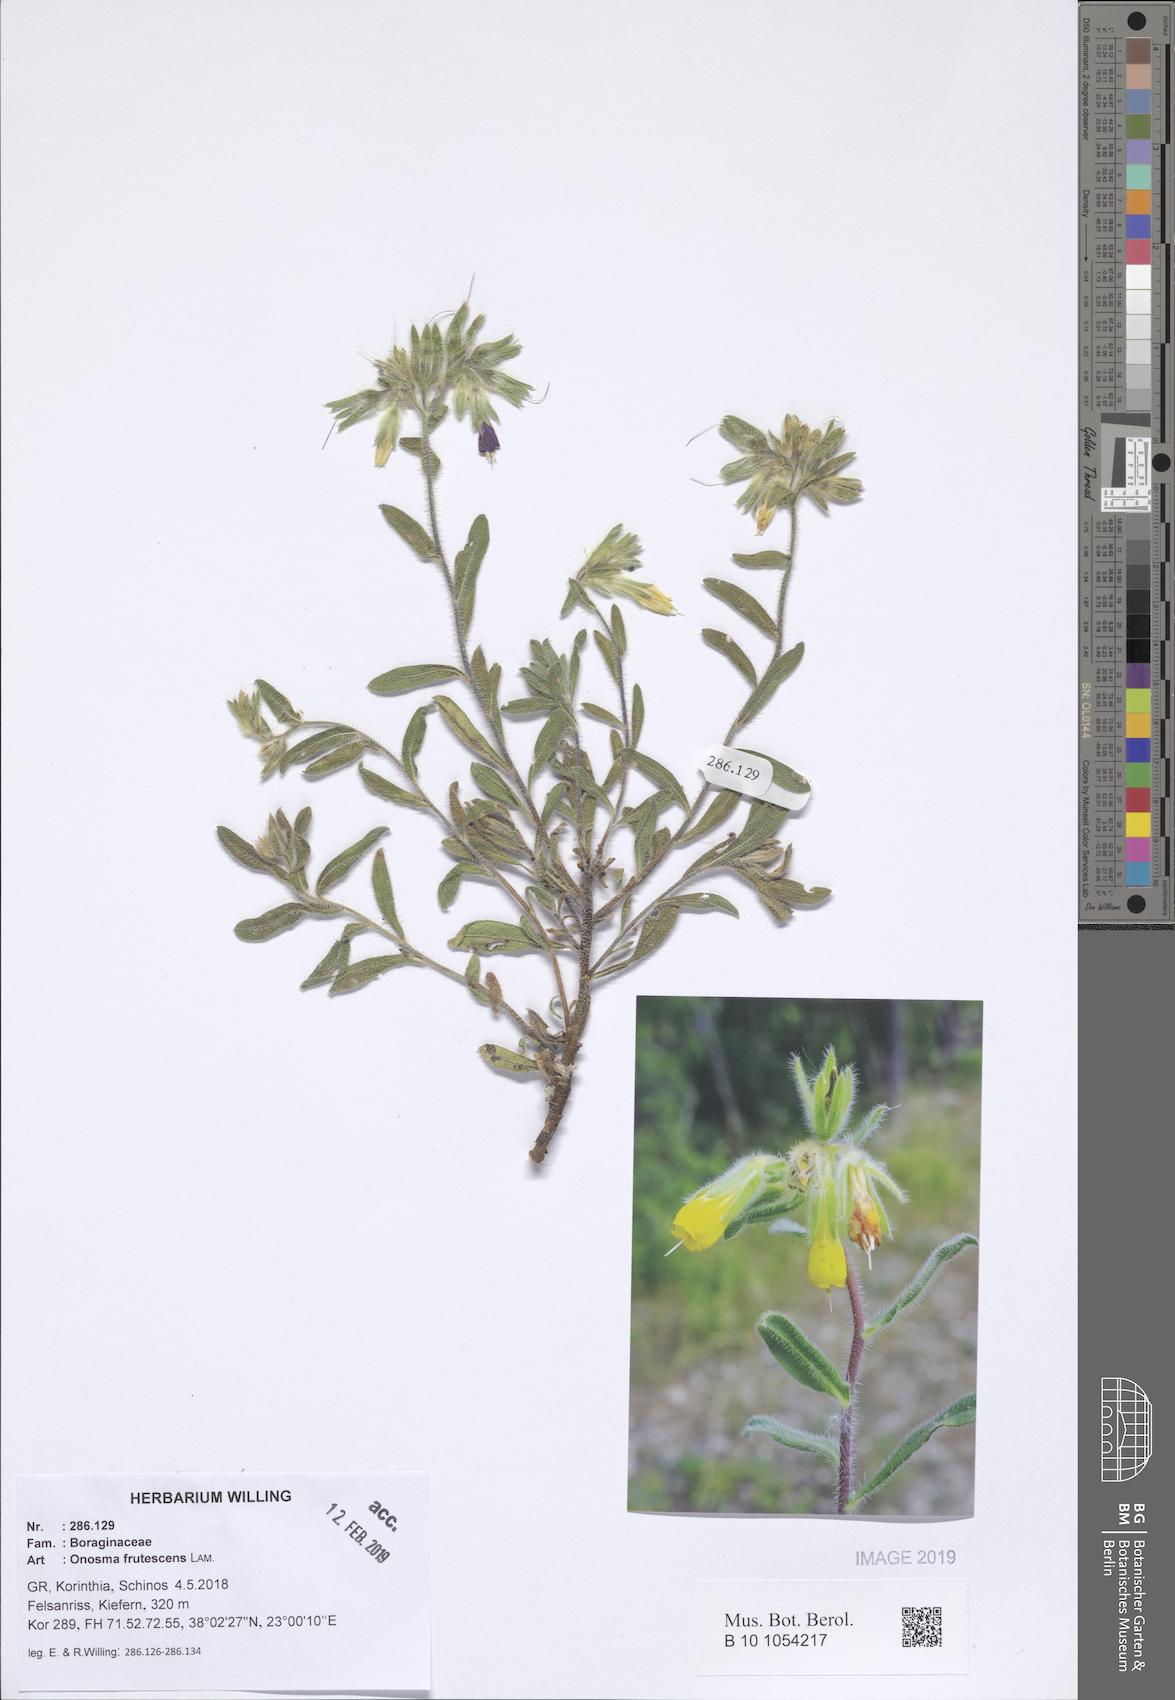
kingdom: Plantae
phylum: Tracheophyta
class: Magnoliopsida
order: Boraginales
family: Boraginaceae
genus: Onosma
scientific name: Onosma frutescens
